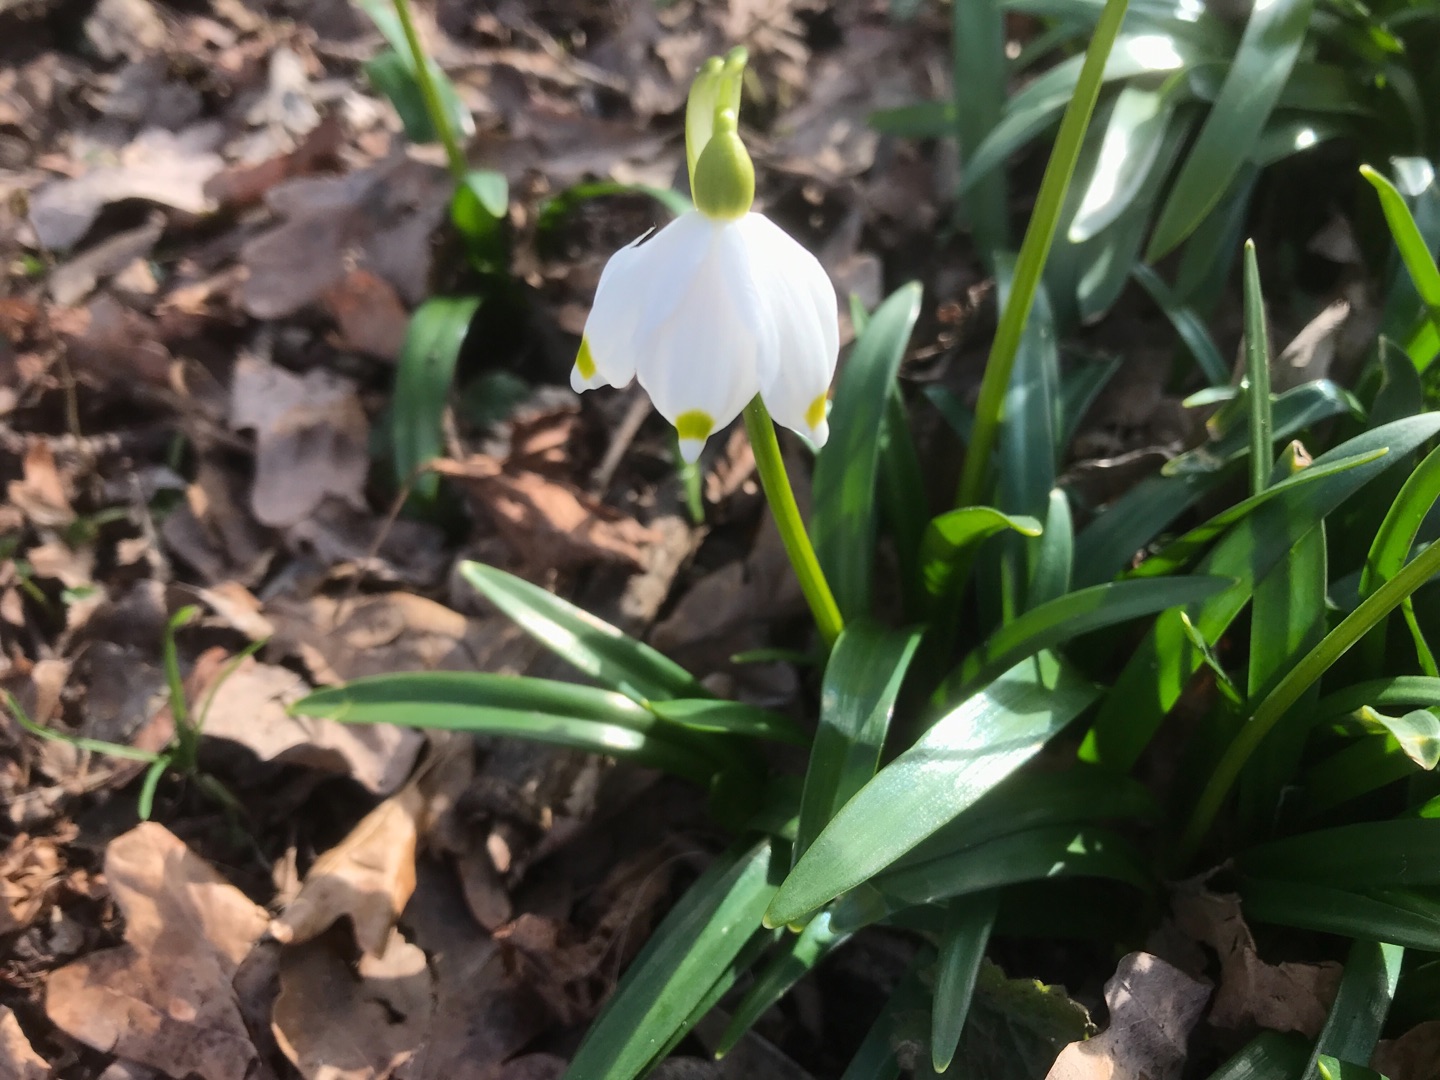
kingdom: Plantae
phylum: Tracheophyta
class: Liliopsida
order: Asparagales
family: Amaryllidaceae
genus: Leucojum
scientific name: Leucojum vernum
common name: Dorthealilje
